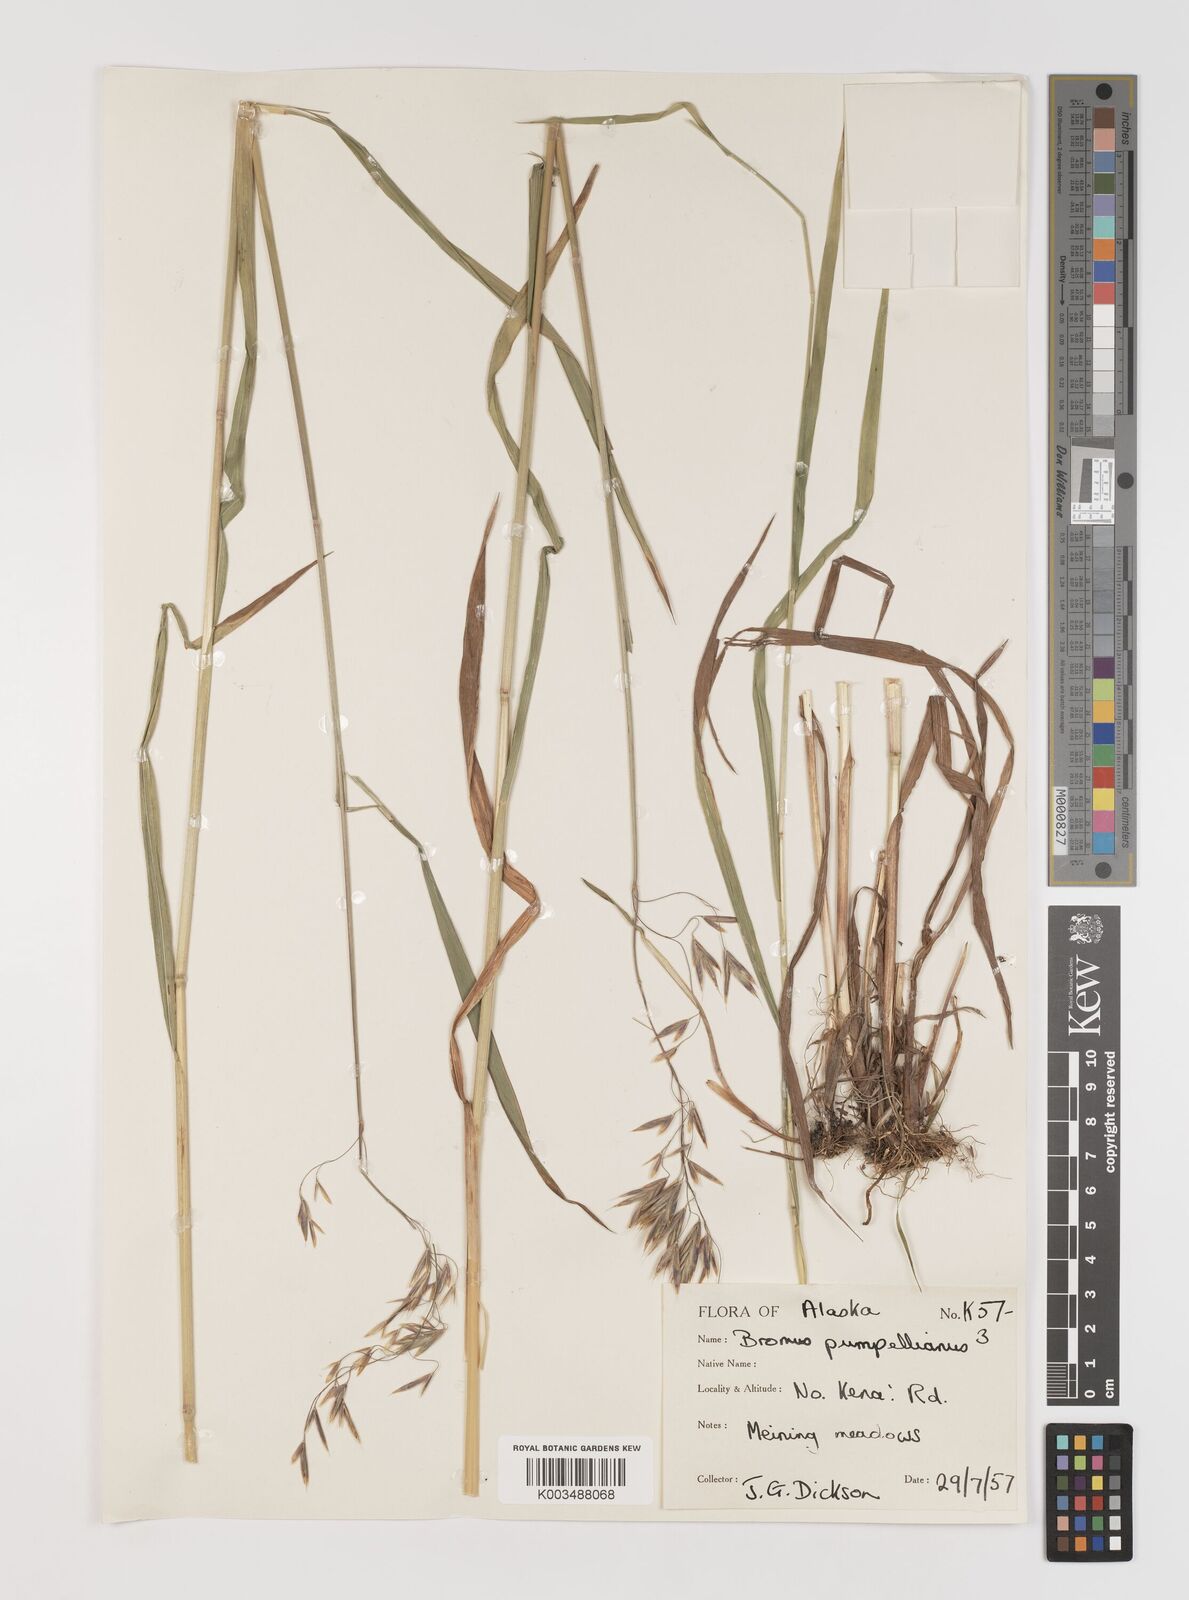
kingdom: Plantae
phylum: Tracheophyta
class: Liliopsida
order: Poales
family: Poaceae
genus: Bromus
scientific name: Bromus pumpellianus
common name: Pumpelly's brome
